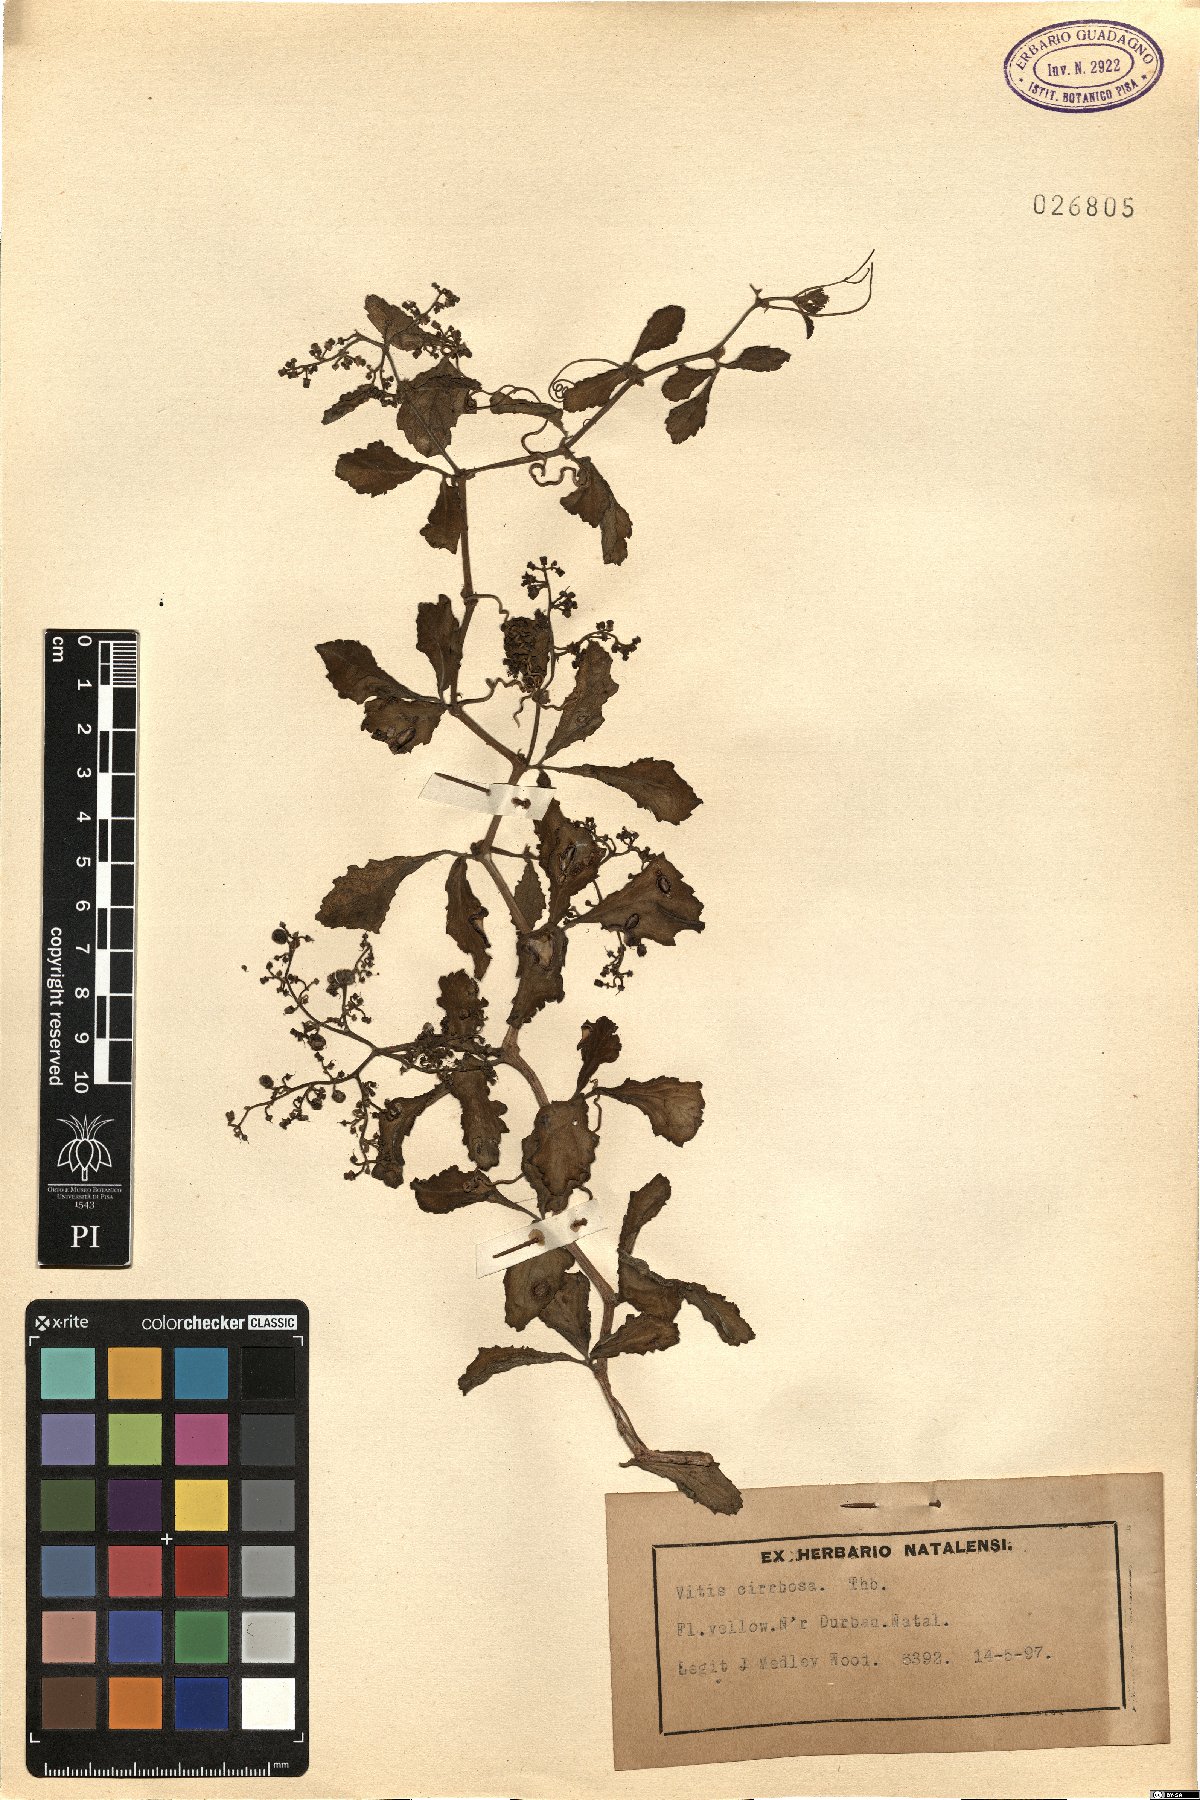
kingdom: Plantae
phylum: Tracheophyta
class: Magnoliopsida
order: Vitales
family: Vitaceae
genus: Cyphostemma
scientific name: Cyphostemma cirrhosum
